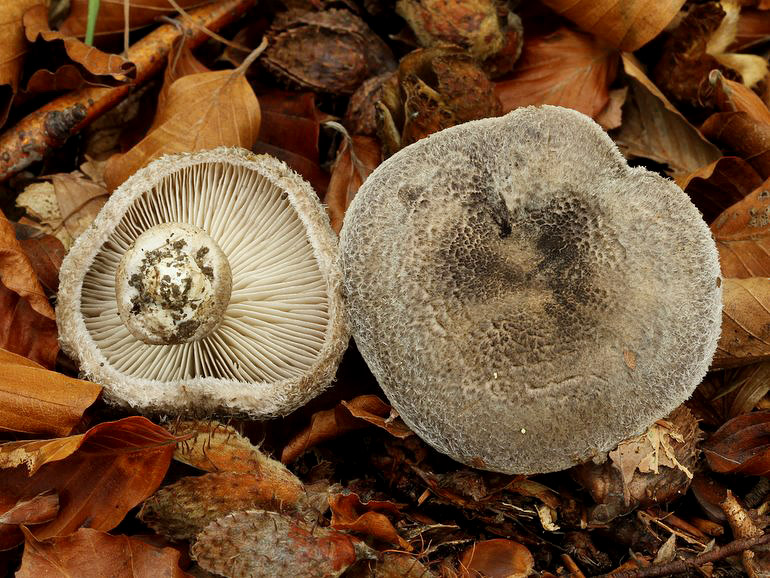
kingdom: Fungi
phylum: Basidiomycota
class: Agaricomycetes
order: Agaricales
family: Tricholomataceae
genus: Tricholoma
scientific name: Tricholoma atrosquamosum
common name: sortskællet ridderhat
